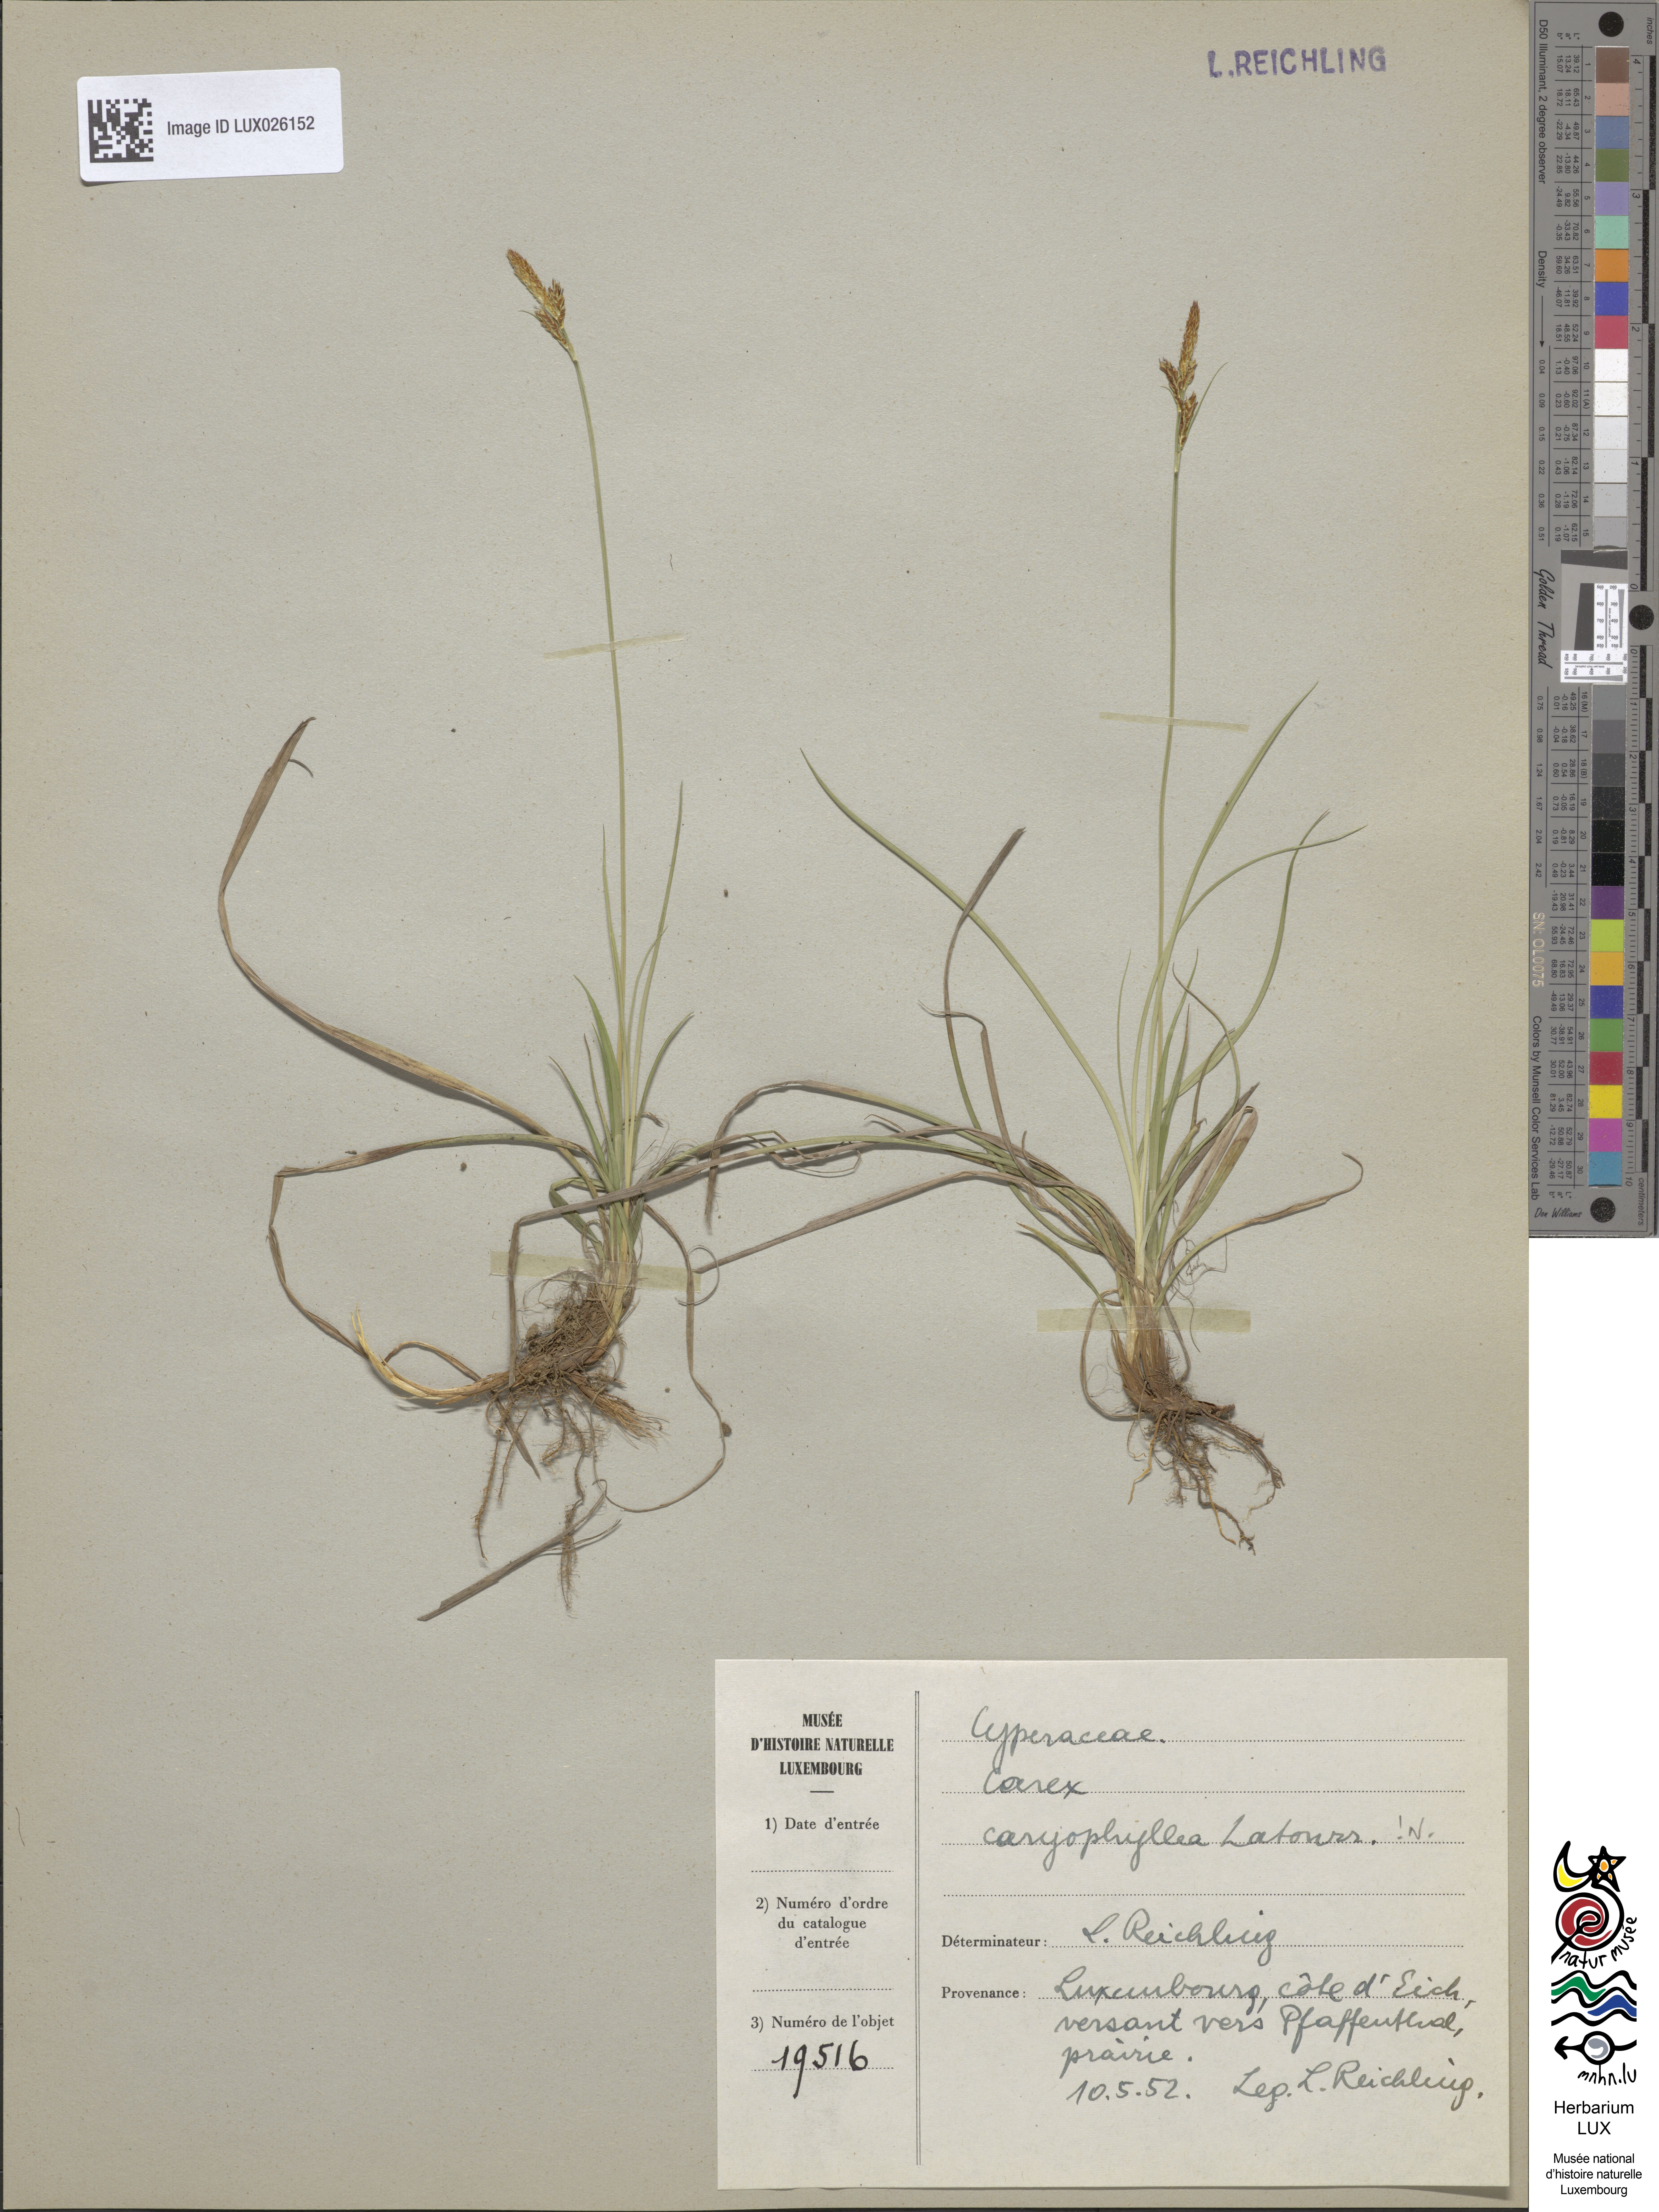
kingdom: Plantae
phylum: Tracheophyta
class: Liliopsida
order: Poales
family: Cyperaceae
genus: Carex
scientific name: Carex caryophyllea
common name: Spring sedge
